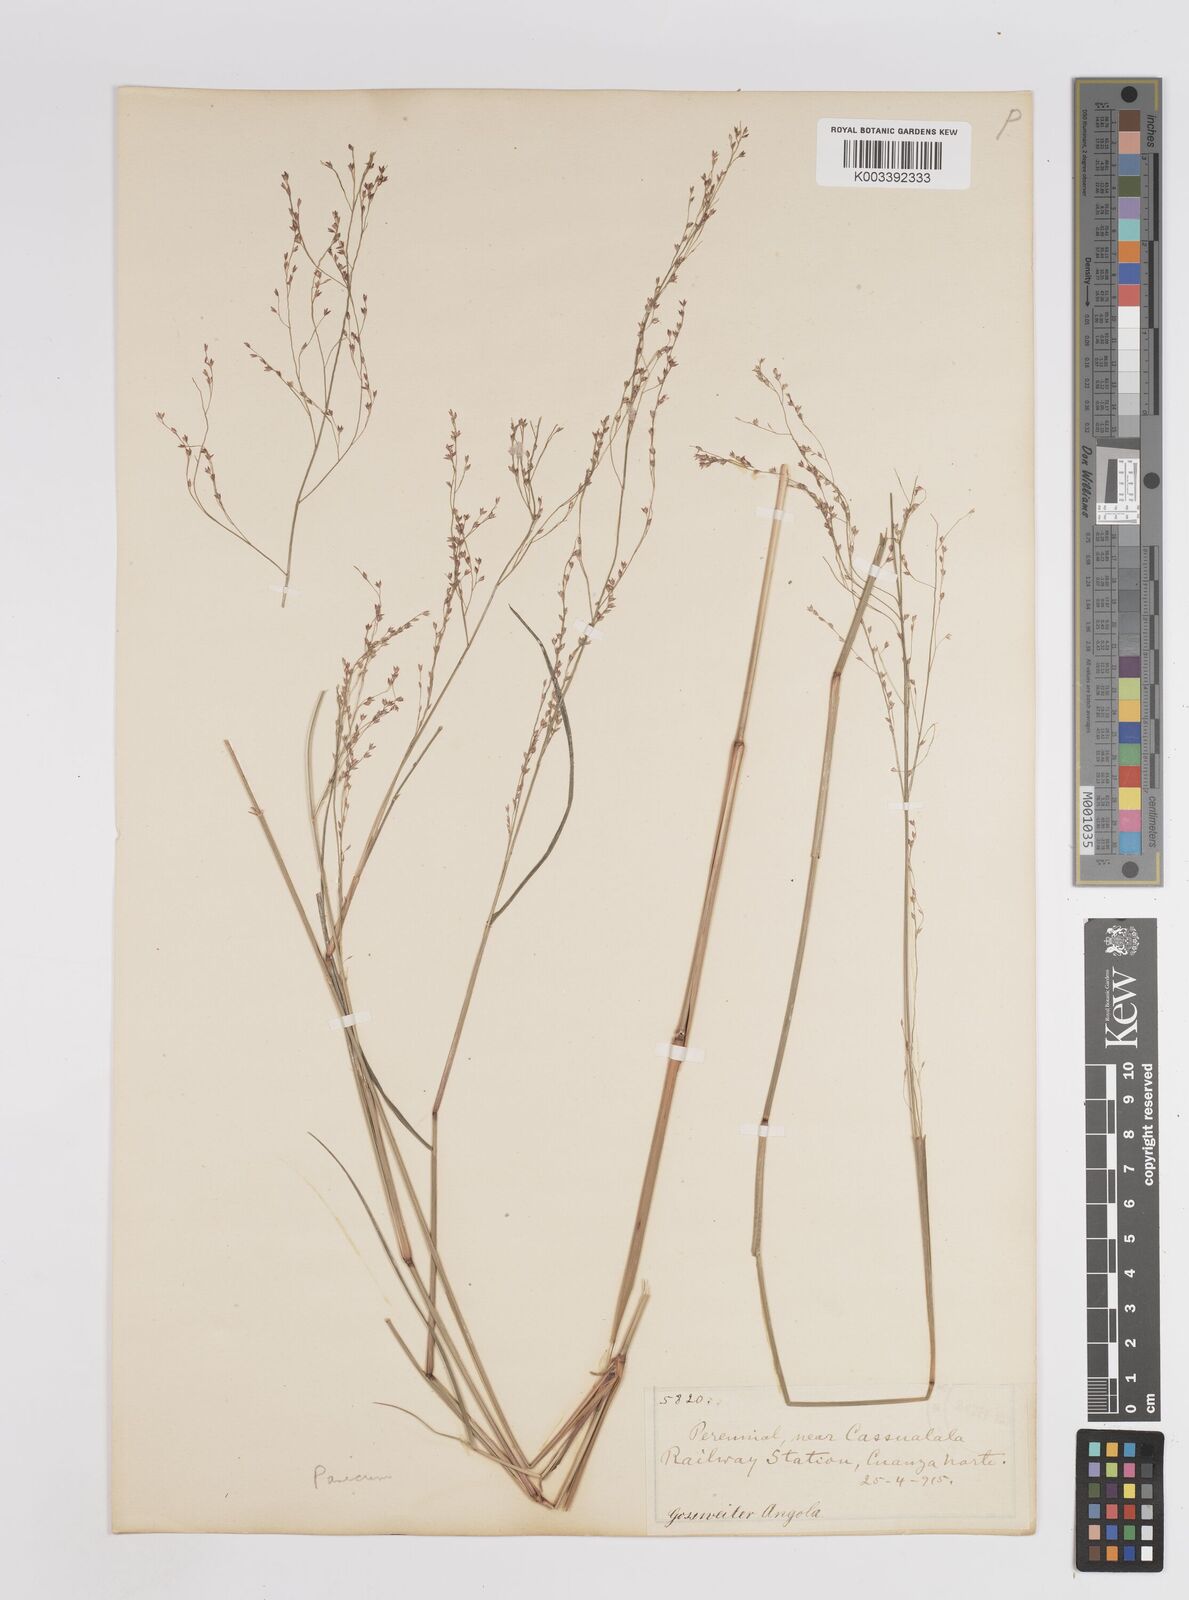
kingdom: Plantae
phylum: Tracheophyta
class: Liliopsida
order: Poales
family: Poaceae
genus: Panicum
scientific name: Panicum genuflexum
